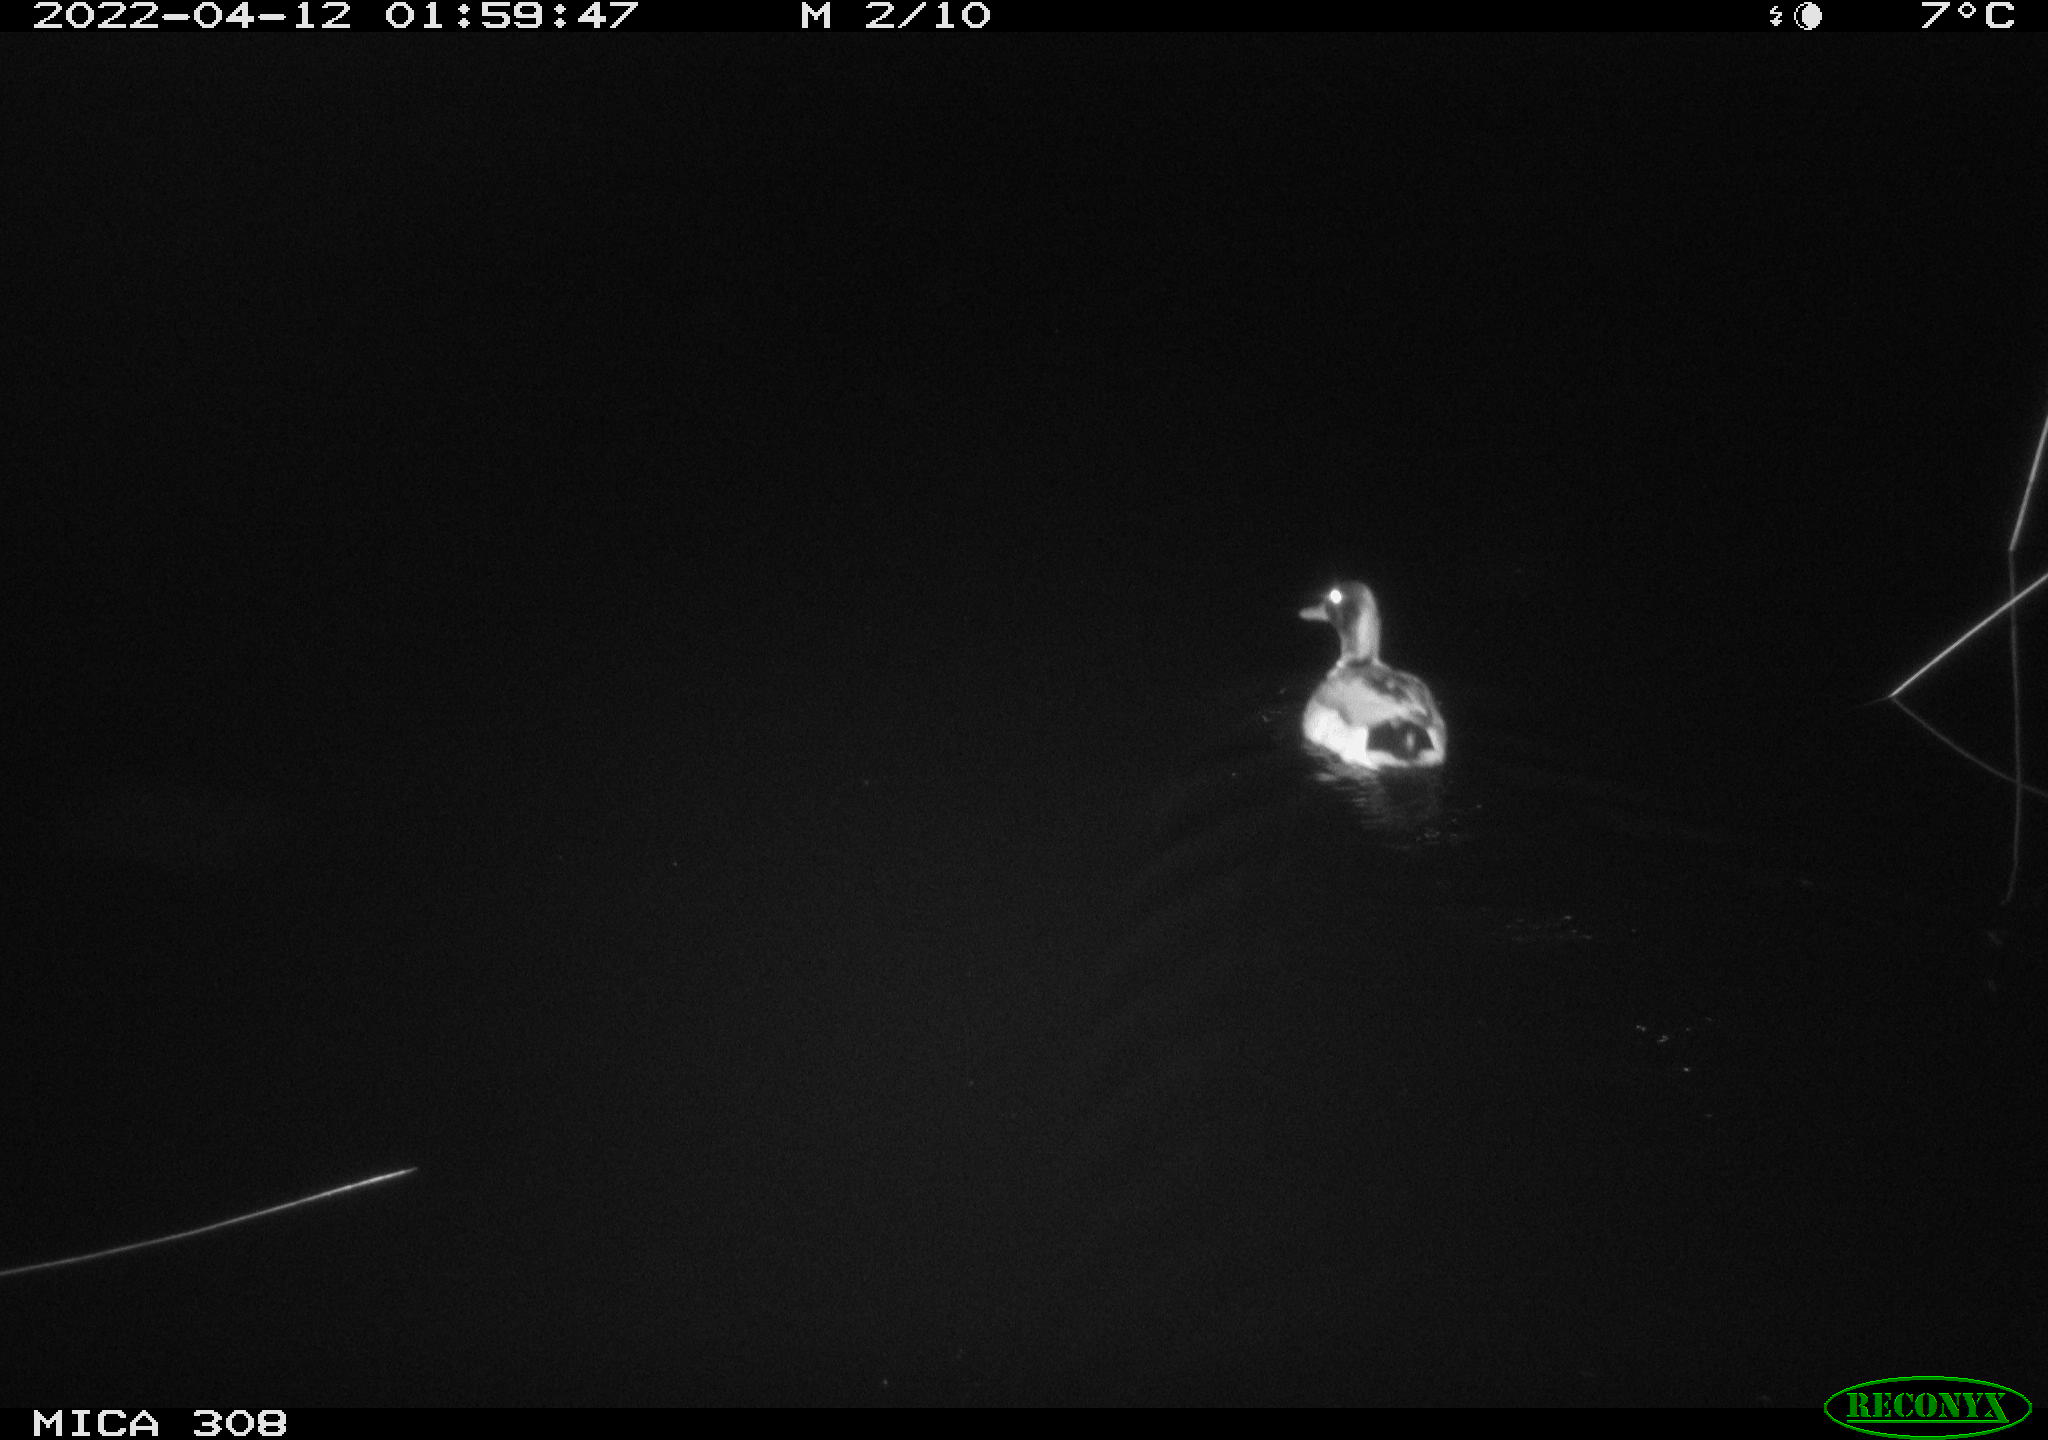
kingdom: Animalia
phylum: Chordata
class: Aves
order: Anseriformes
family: Anatidae
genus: Anas
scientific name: Anas platyrhynchos
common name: Mallard
